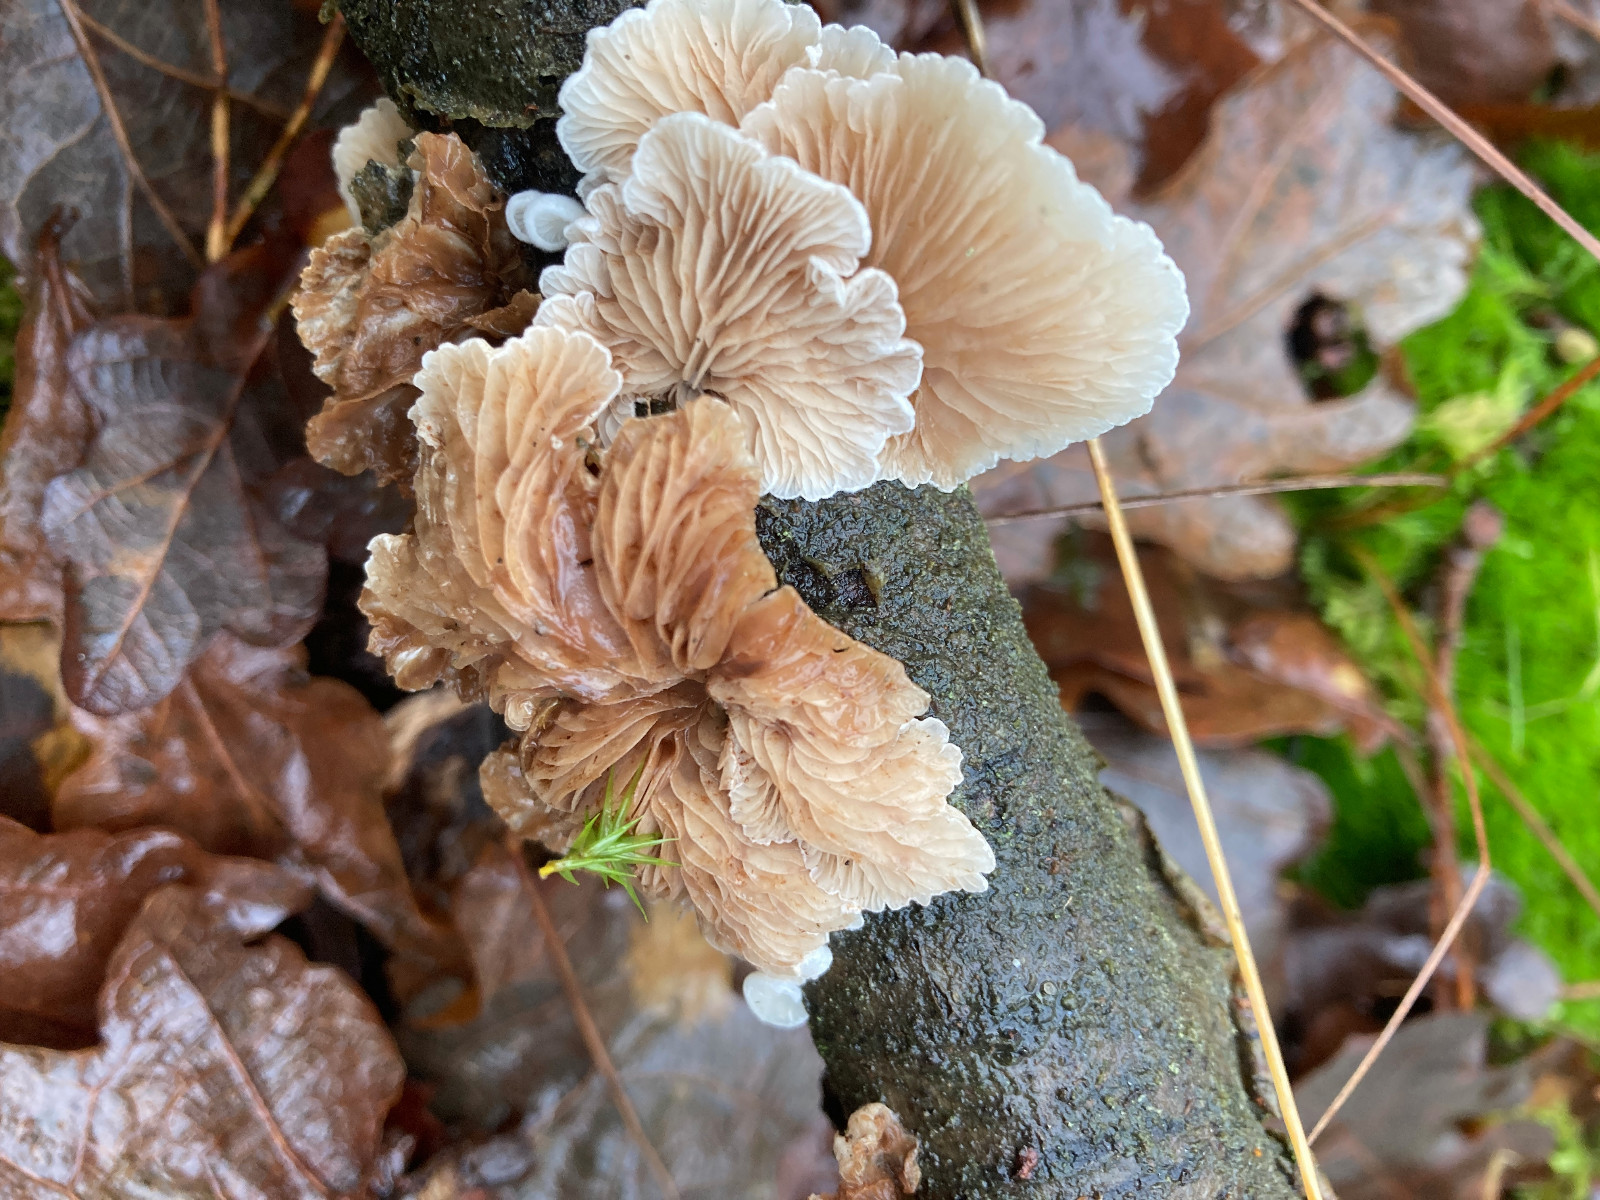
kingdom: Fungi
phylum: Basidiomycota
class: Agaricomycetes
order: Agaricales
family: Crepidotaceae
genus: Crepidotus
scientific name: Crepidotus
